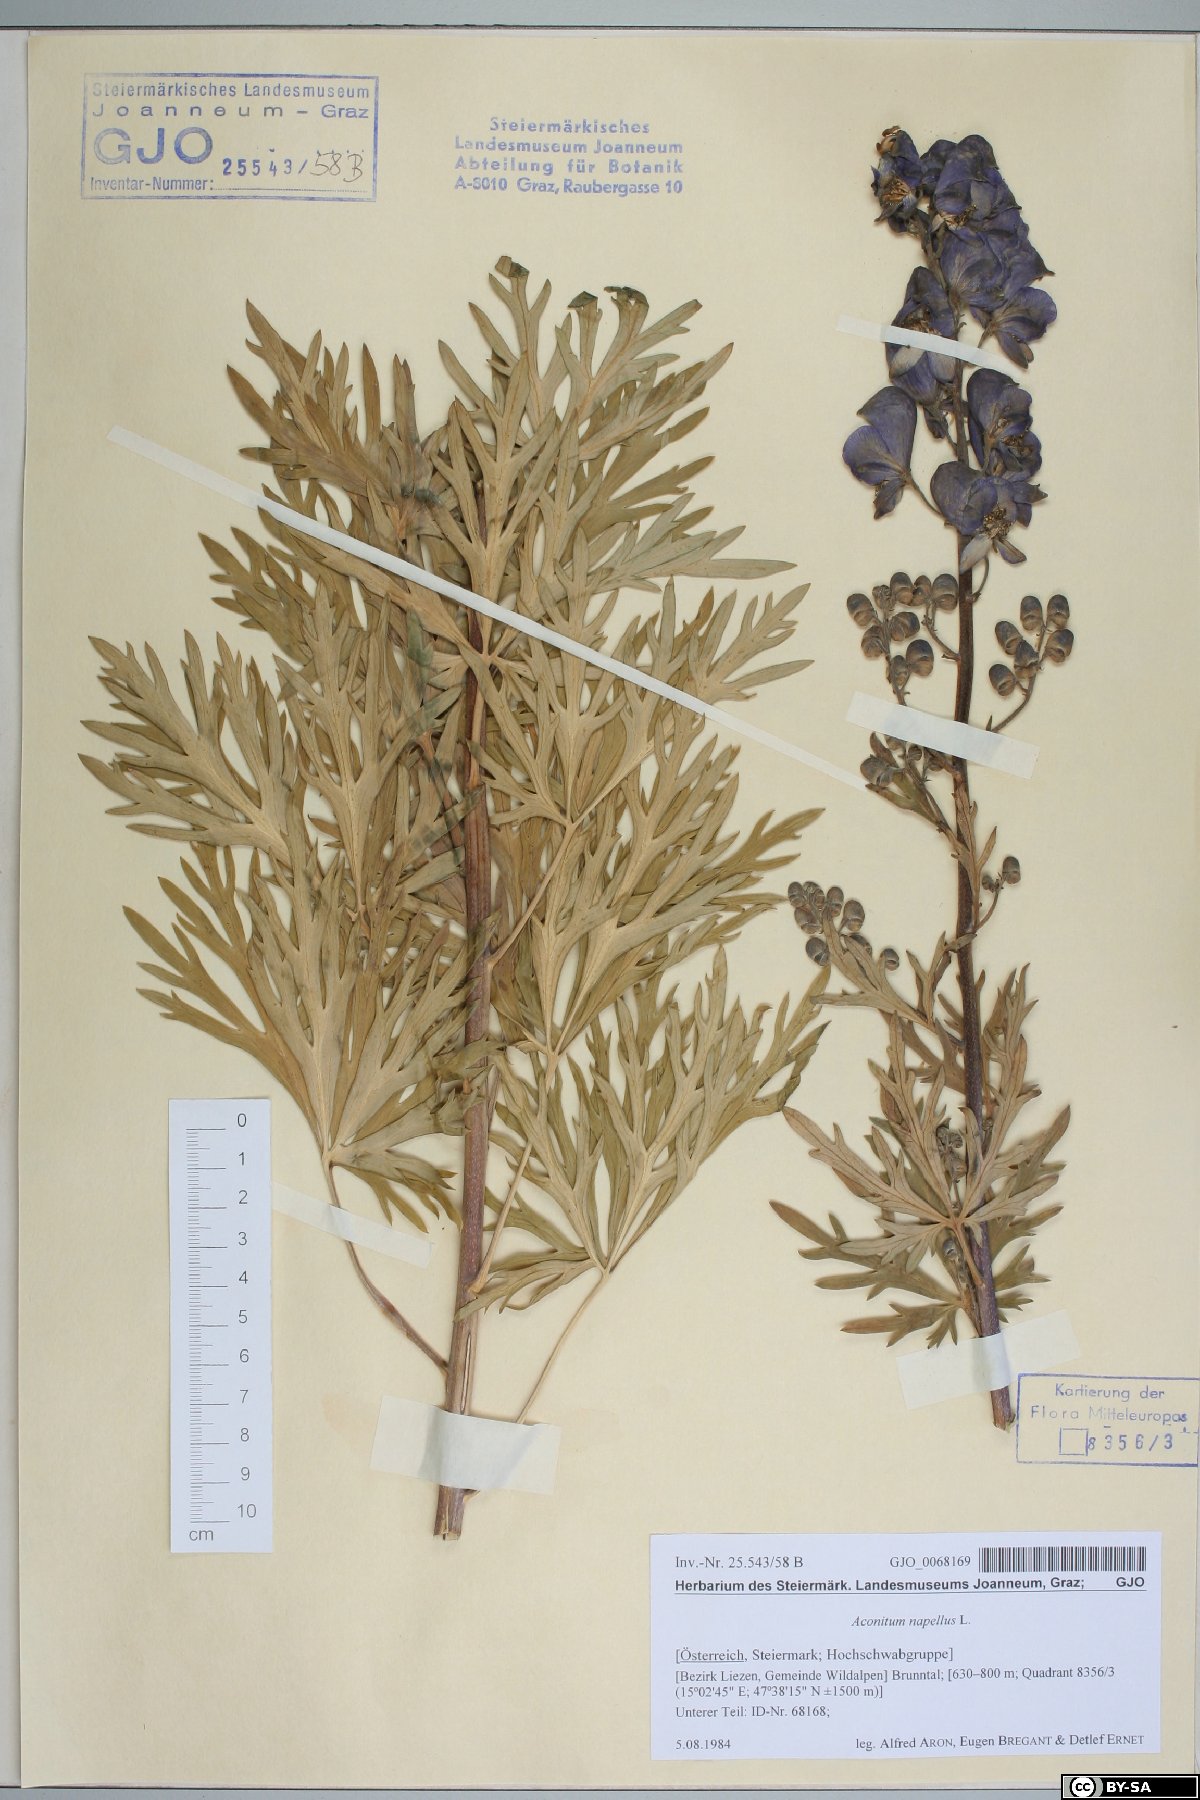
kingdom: Plantae
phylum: Tracheophyta
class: Magnoliopsida
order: Ranunculales
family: Ranunculaceae
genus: Aconitum
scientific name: Aconitum napellus
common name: Garden monkshood
